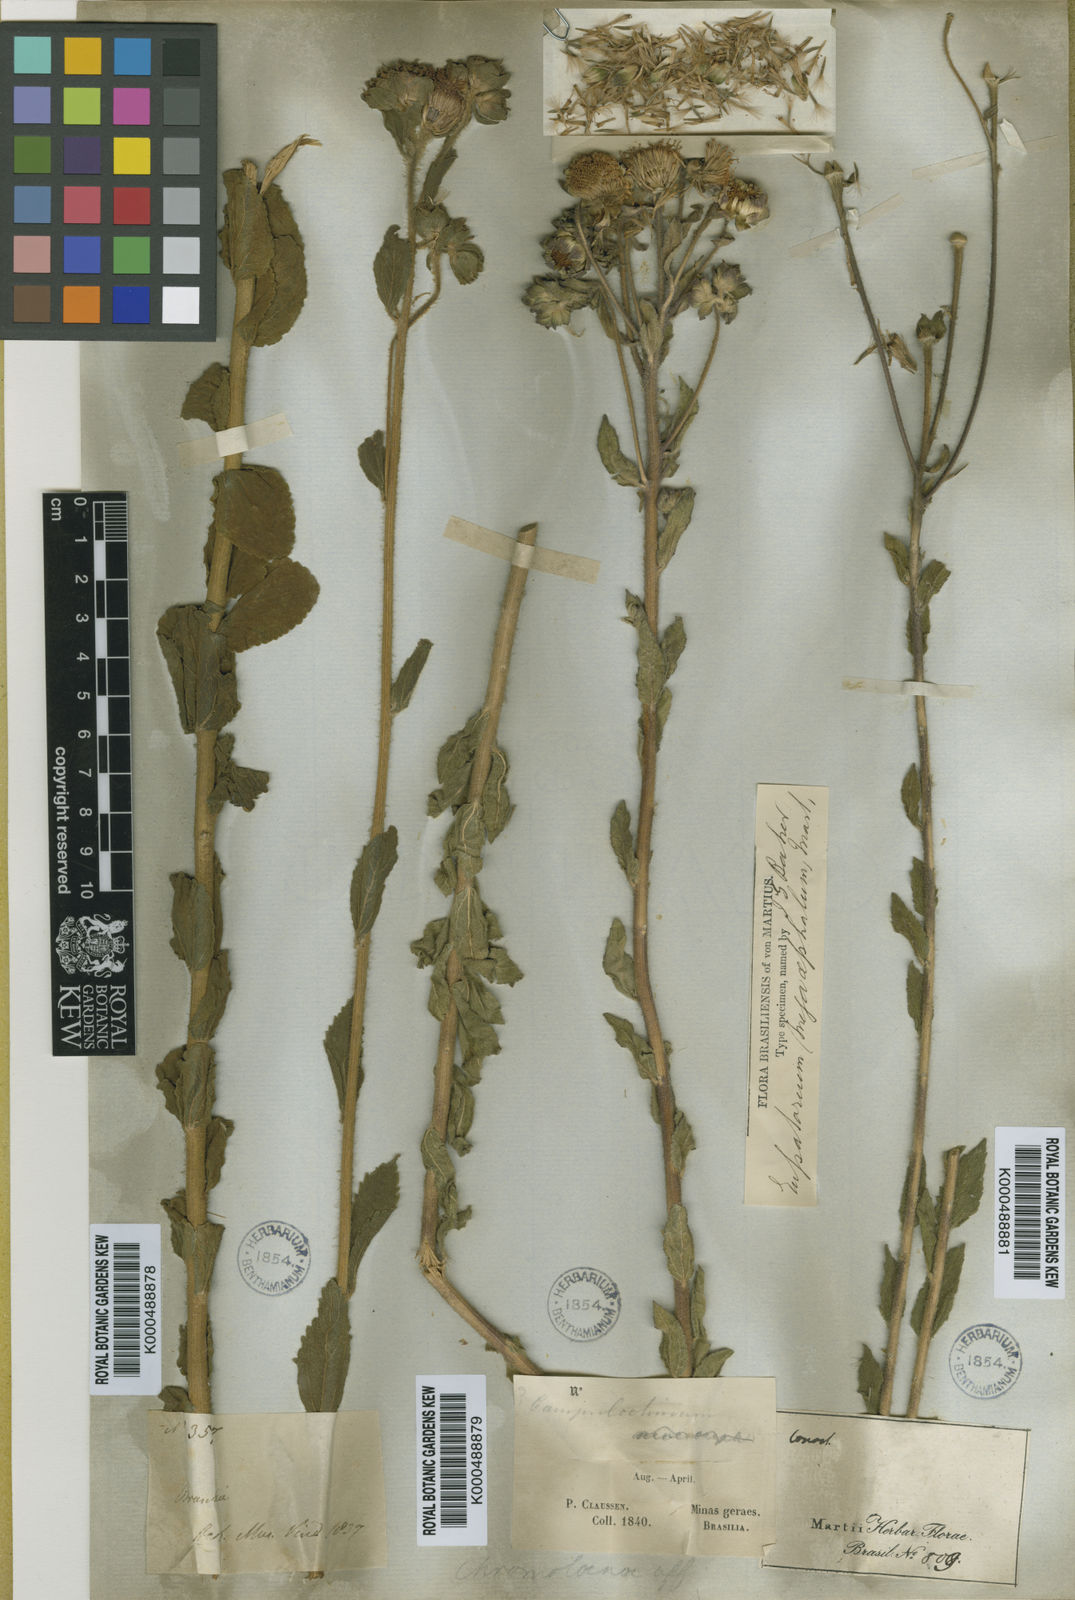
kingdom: Plantae
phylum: Tracheophyta
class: Magnoliopsida
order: Asterales
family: Asteraceae
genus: Campuloclinium
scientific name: Campuloclinium megacephalum
